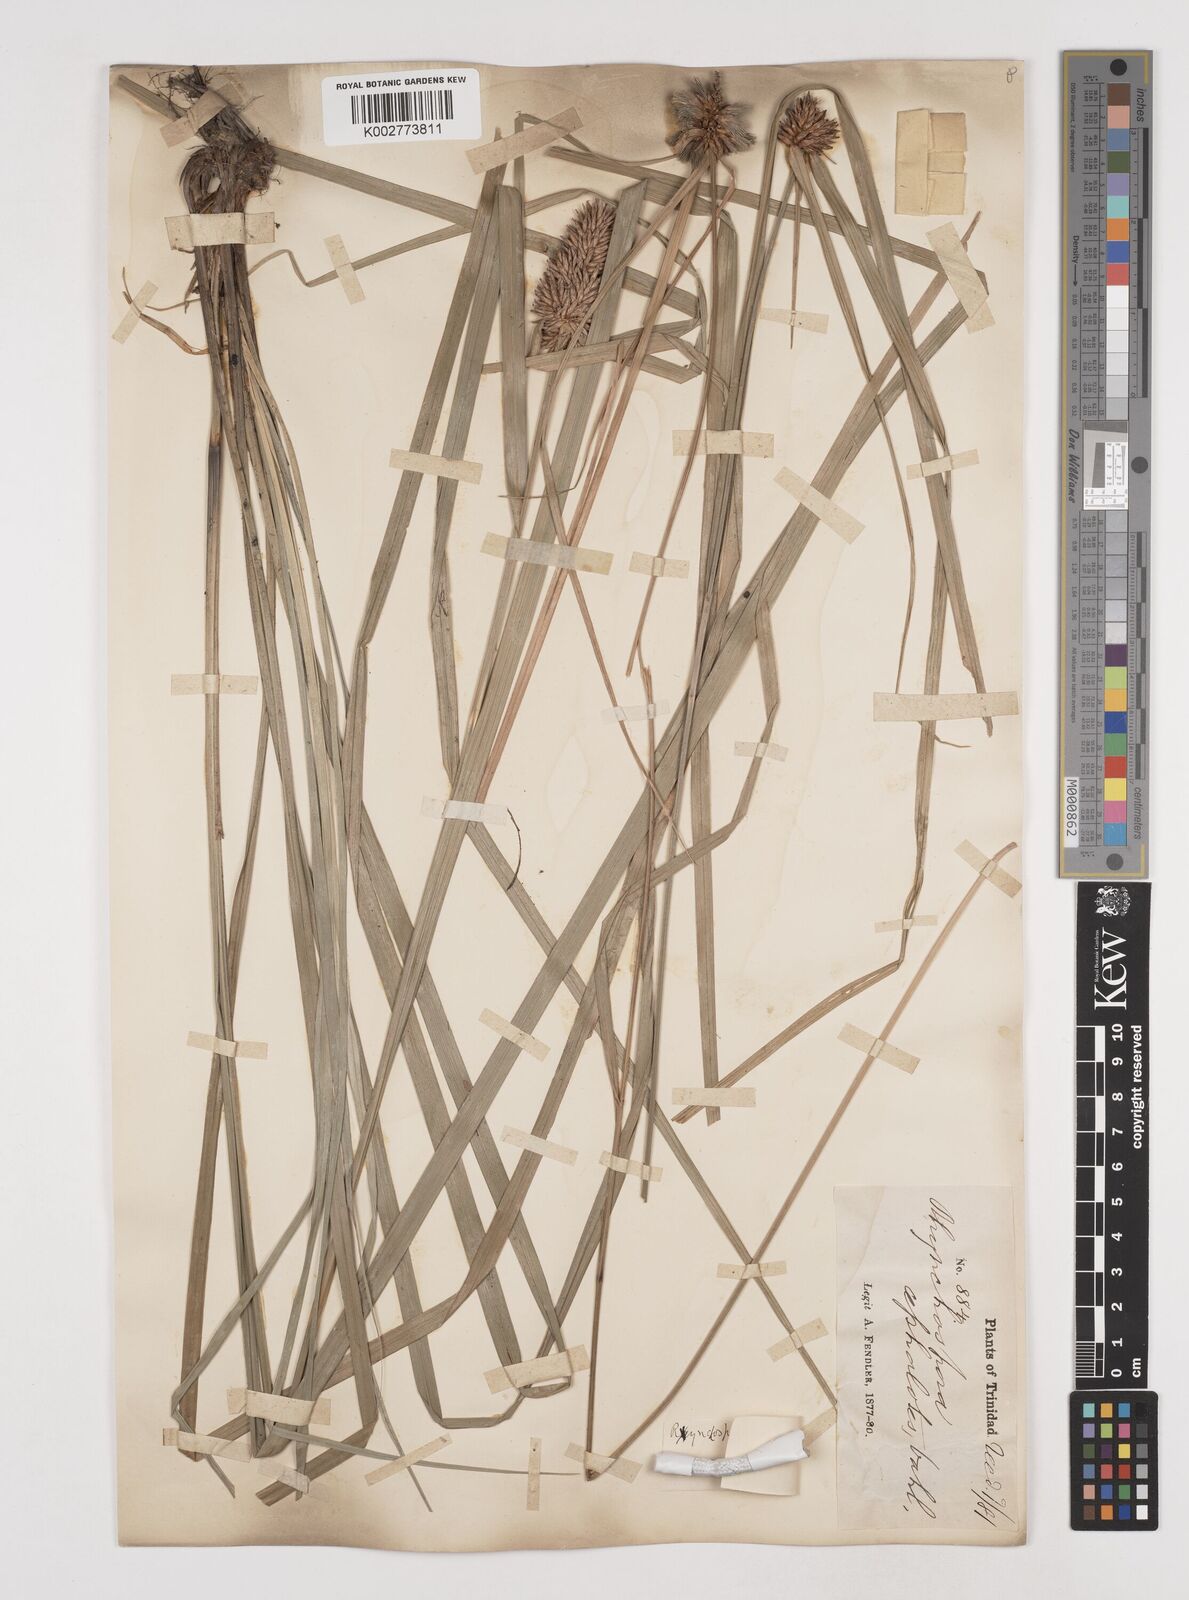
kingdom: Plantae
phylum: Tracheophyta
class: Liliopsida
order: Poales
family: Cyperaceae
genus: Rhynchospora
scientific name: Rhynchospora cephalotes
